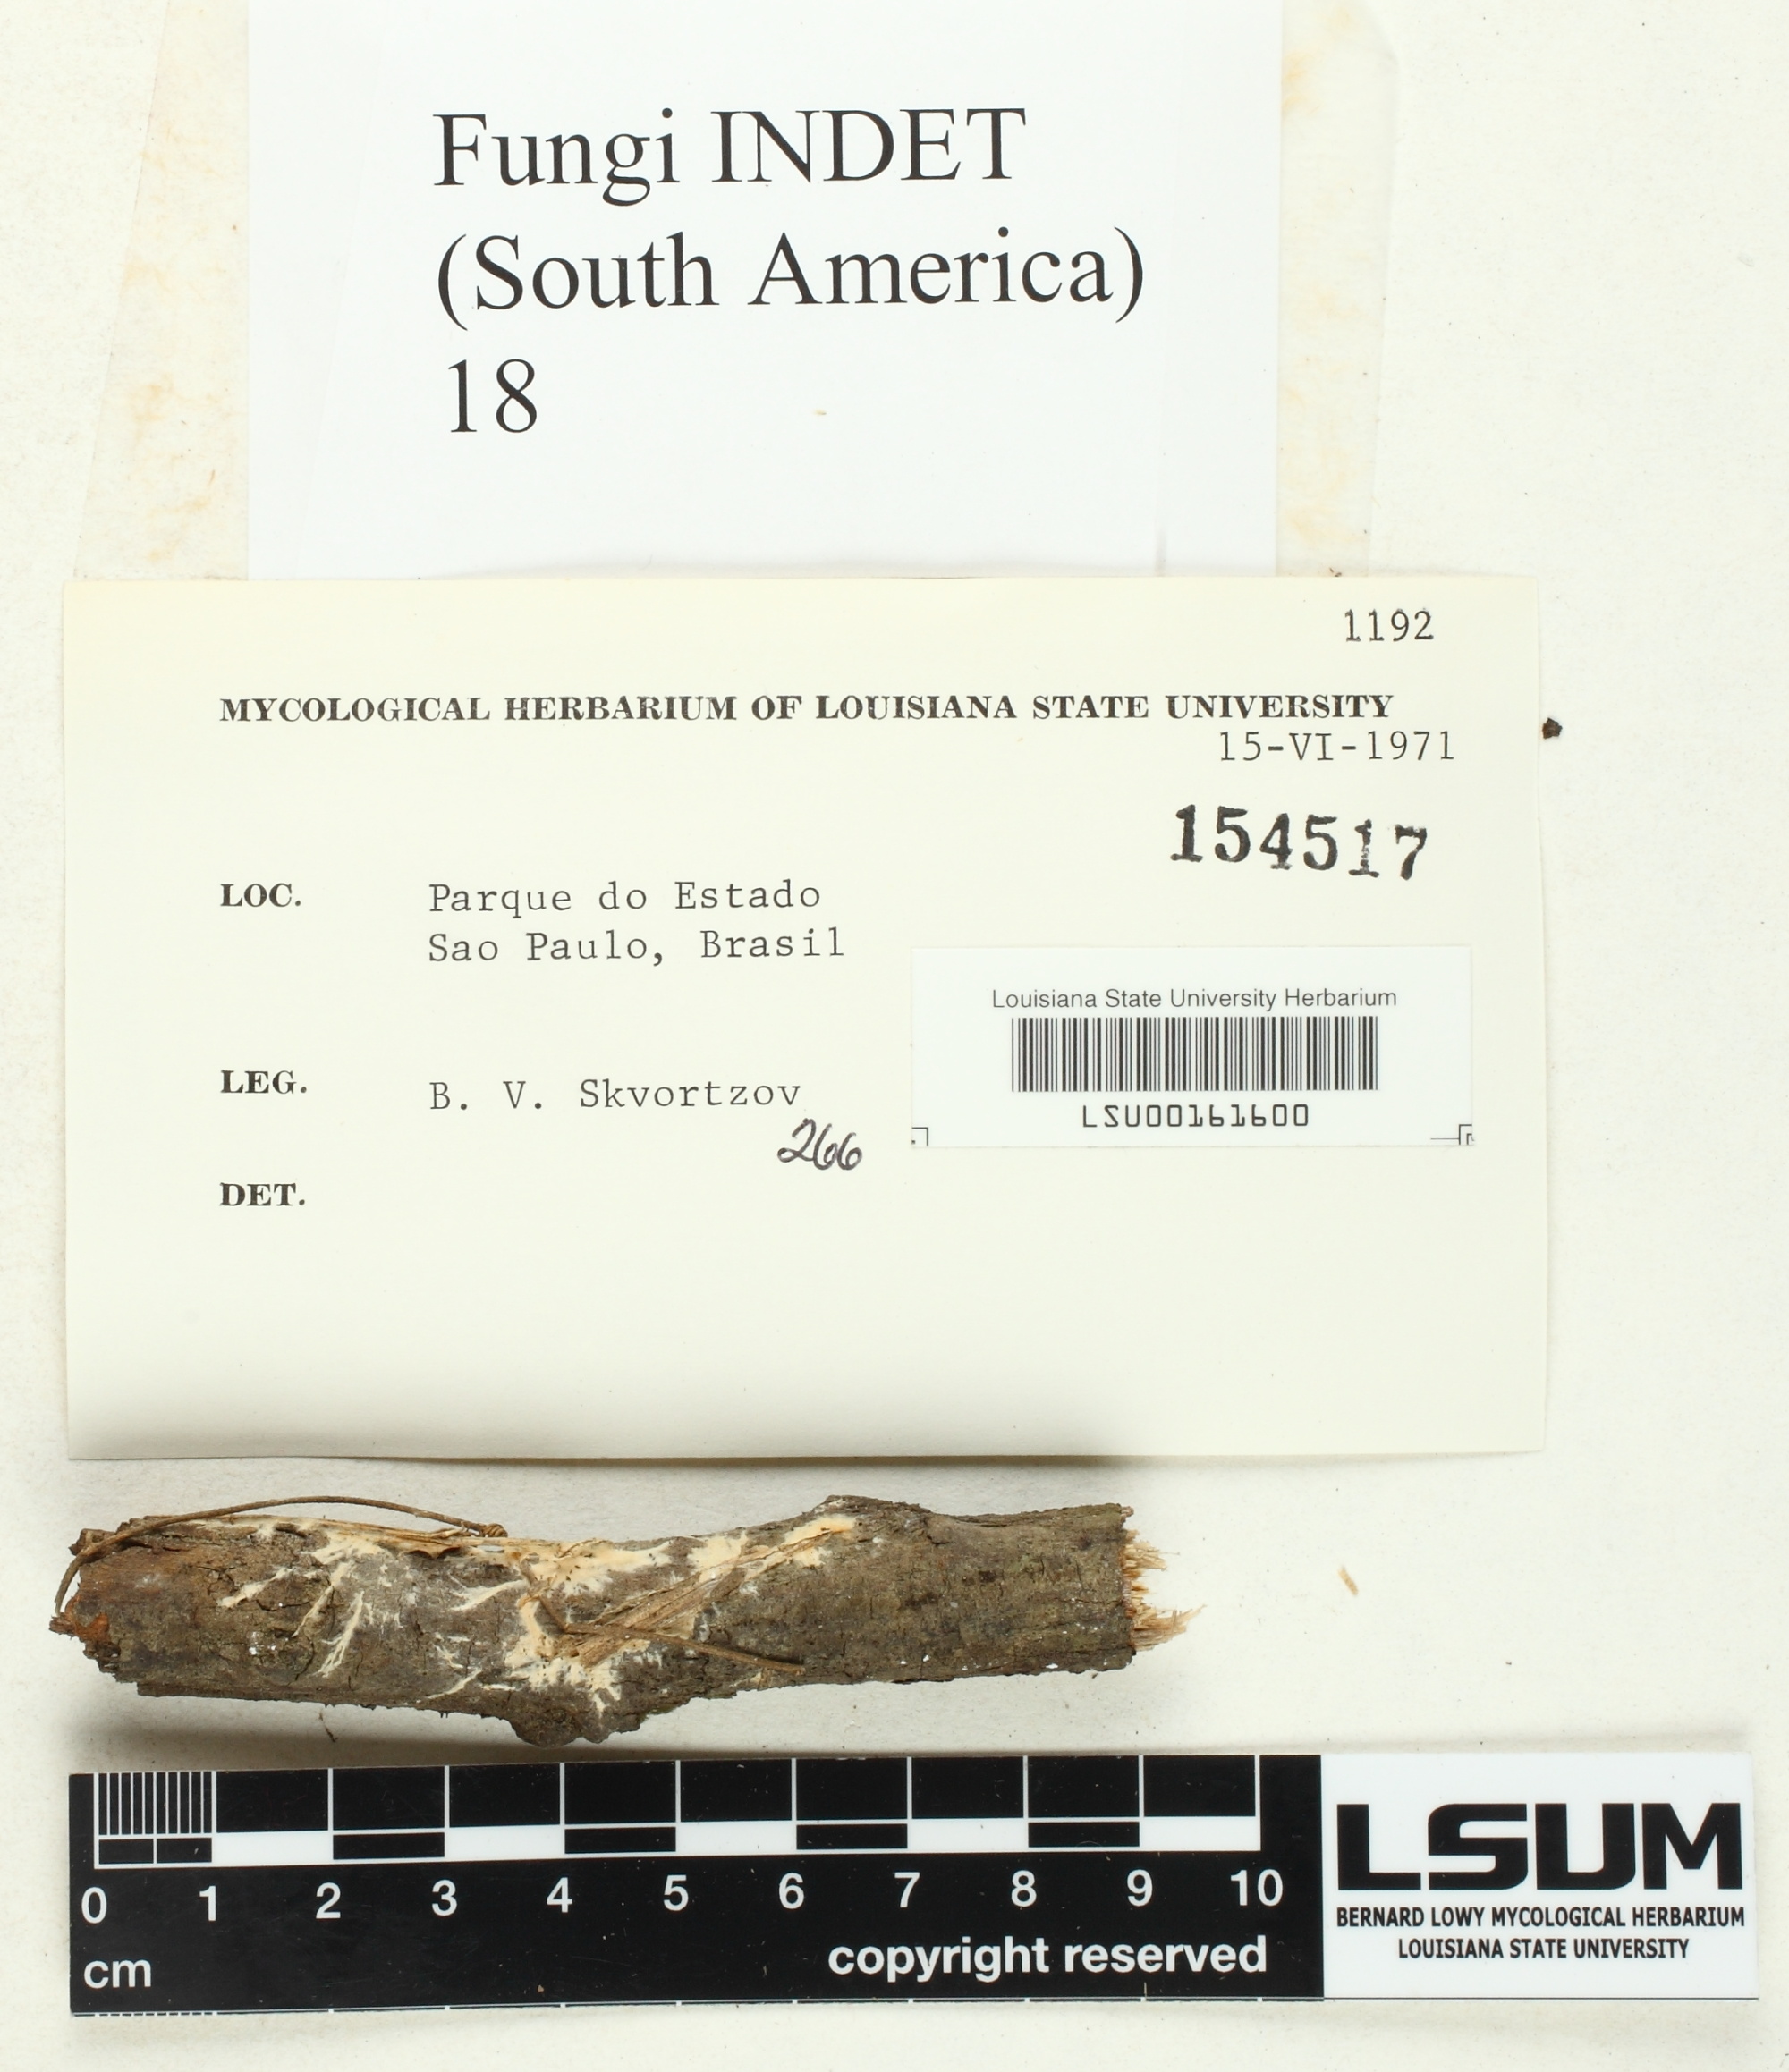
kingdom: Fungi
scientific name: Fungi
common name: Fungi
